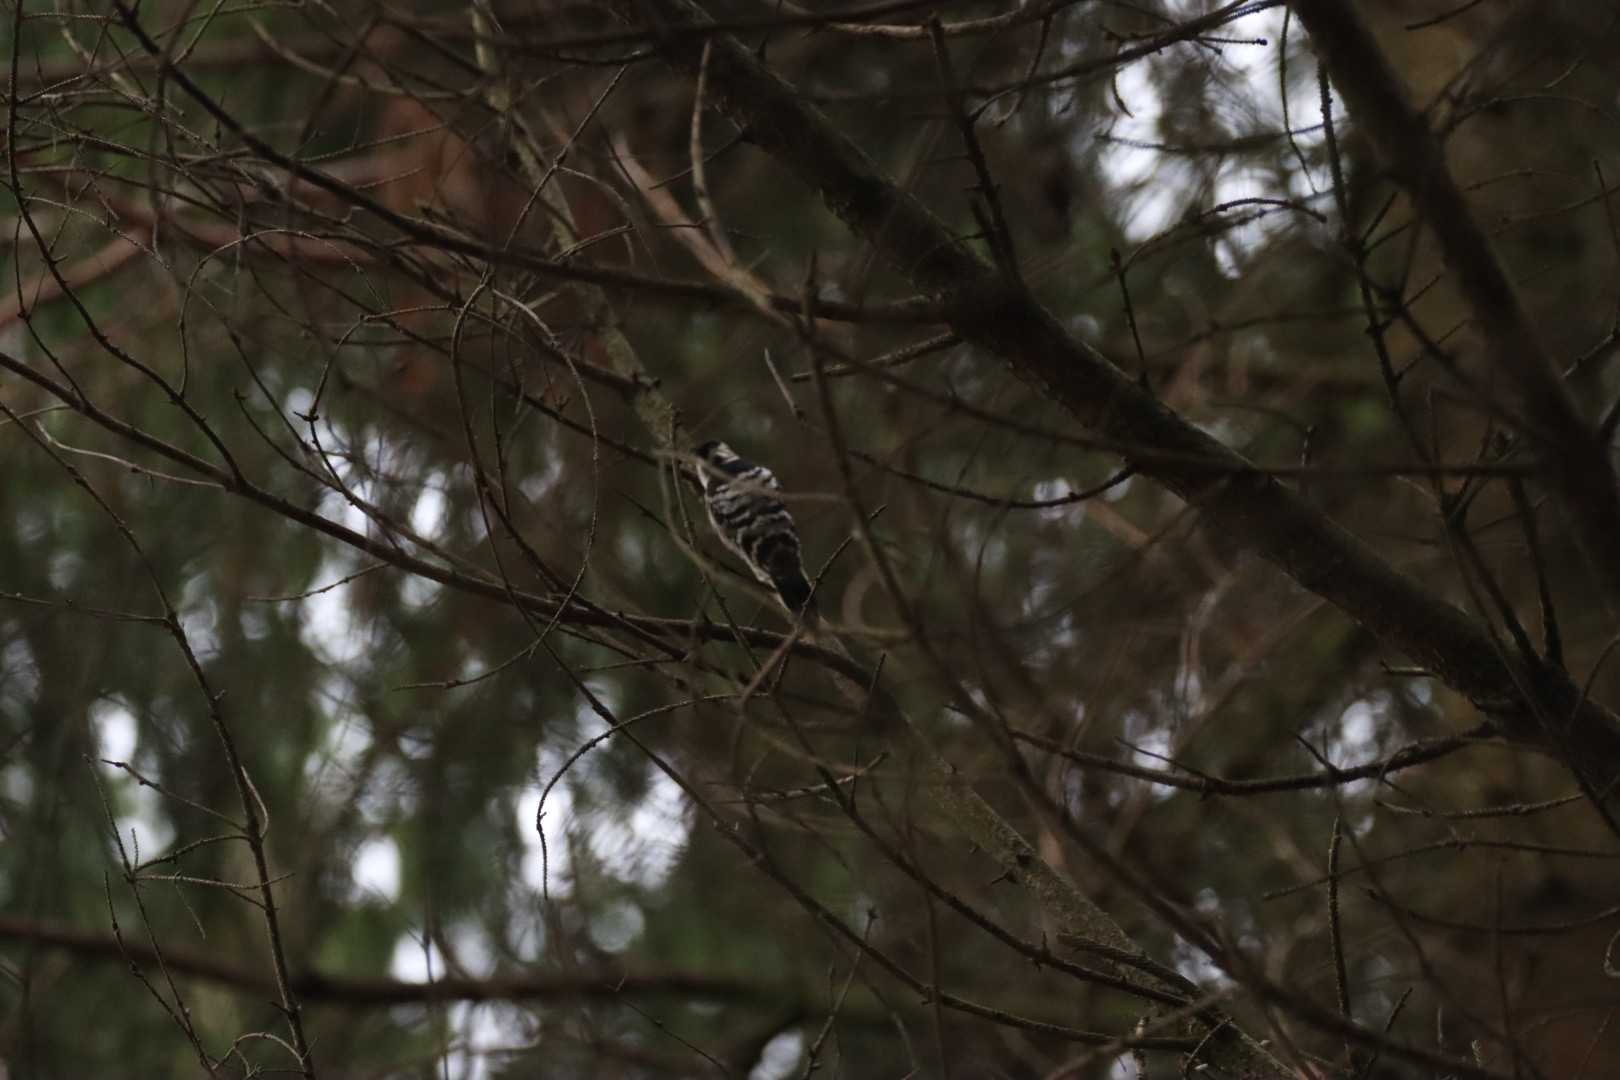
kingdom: Animalia
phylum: Chordata
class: Aves
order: Piciformes
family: Picidae
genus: Dryobates
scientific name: Dryobates minor
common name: Lille flagspætte
